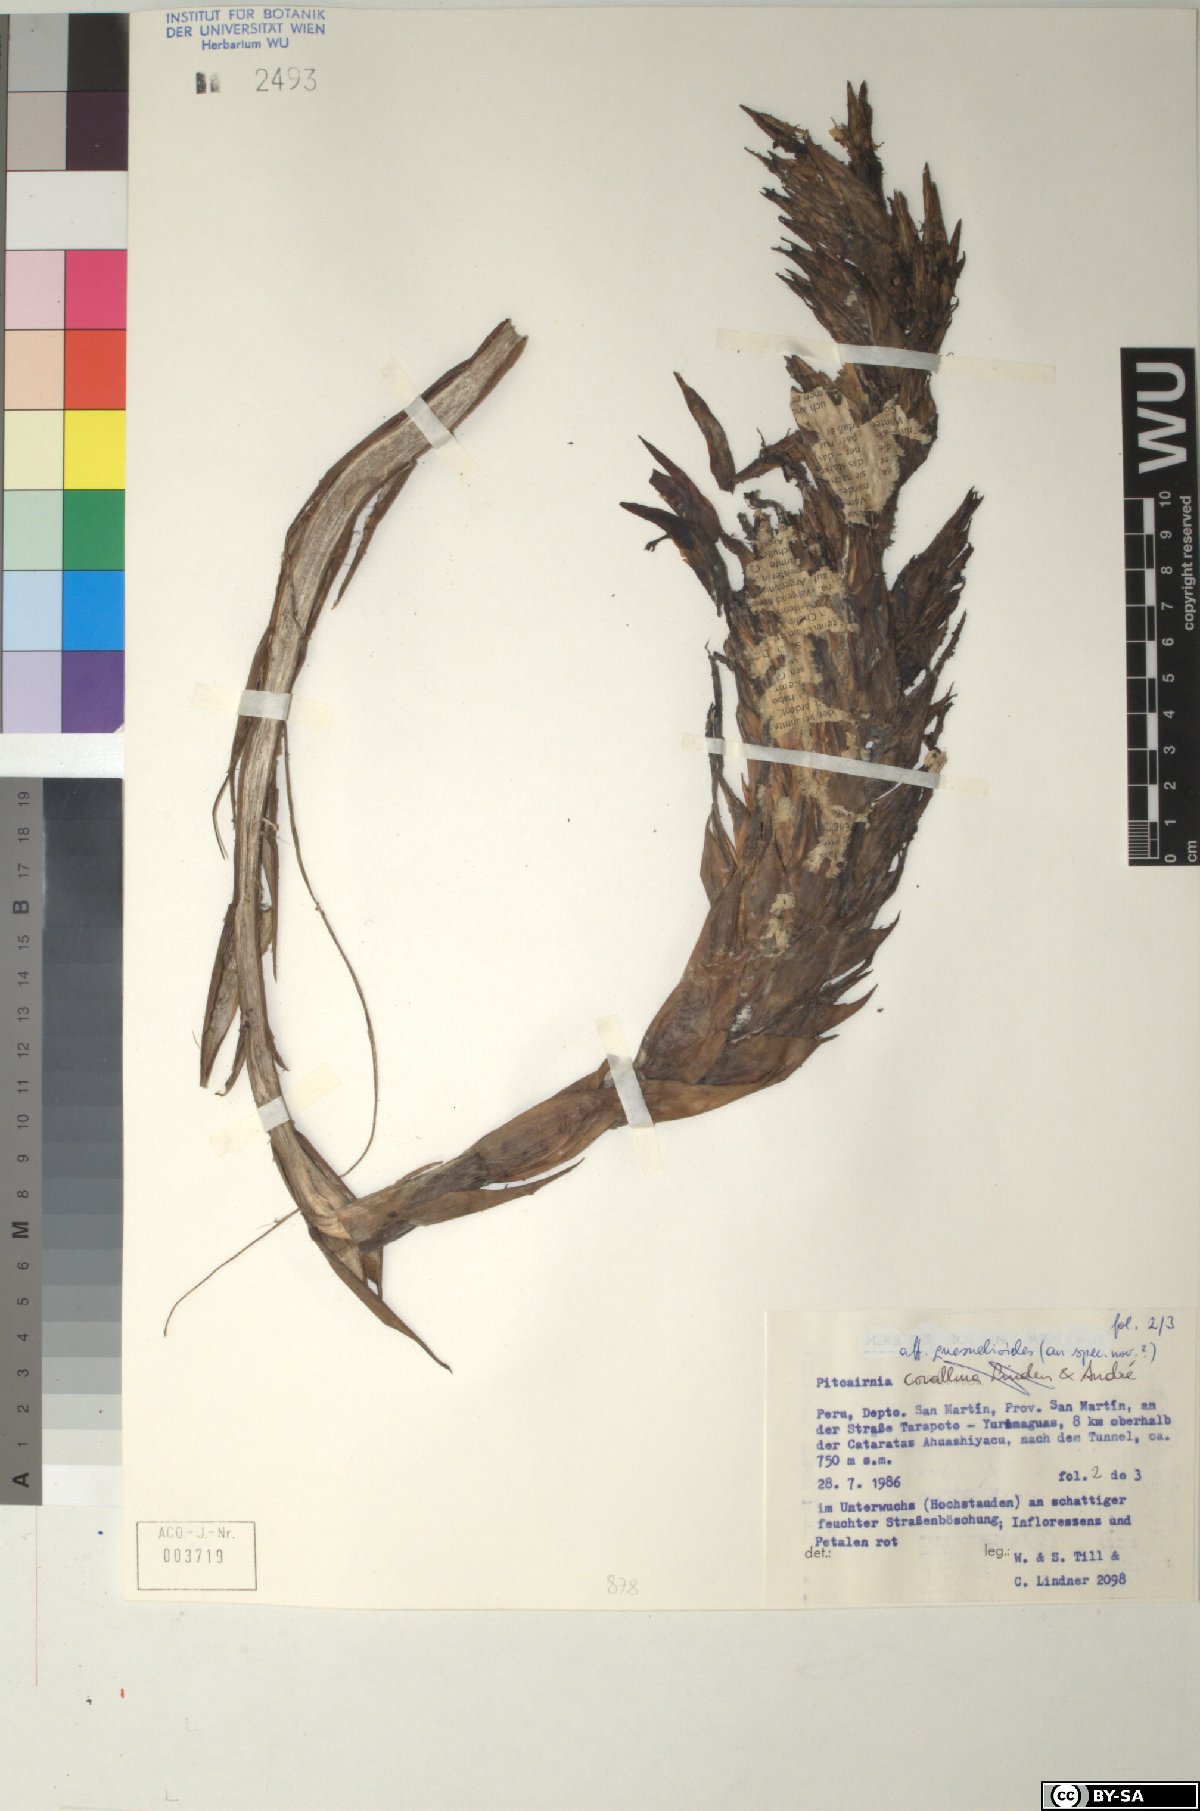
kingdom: Plantae
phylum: Tracheophyta
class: Liliopsida
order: Poales
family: Bromeliaceae
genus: Pitcairnia
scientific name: Pitcairnia corallina
